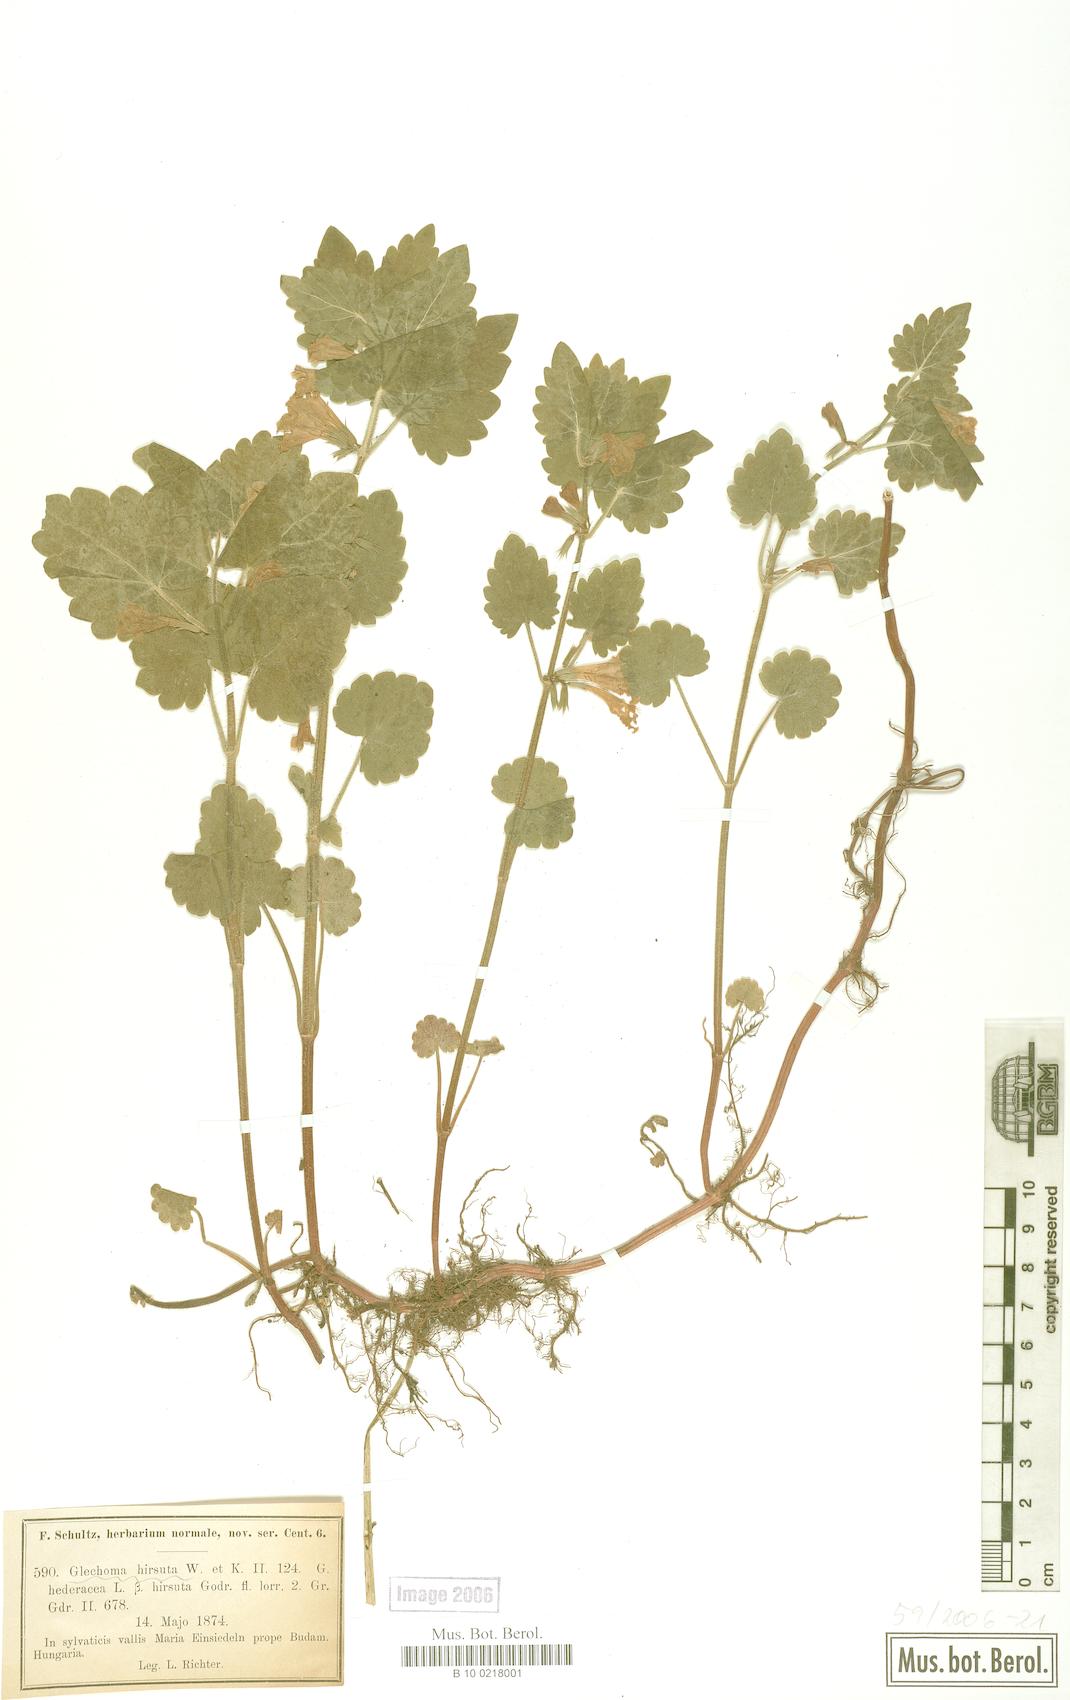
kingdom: Plantae
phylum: Tracheophyta
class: Magnoliopsida
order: Lamiales
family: Lamiaceae
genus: Glechoma
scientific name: Glechoma hirsuta
